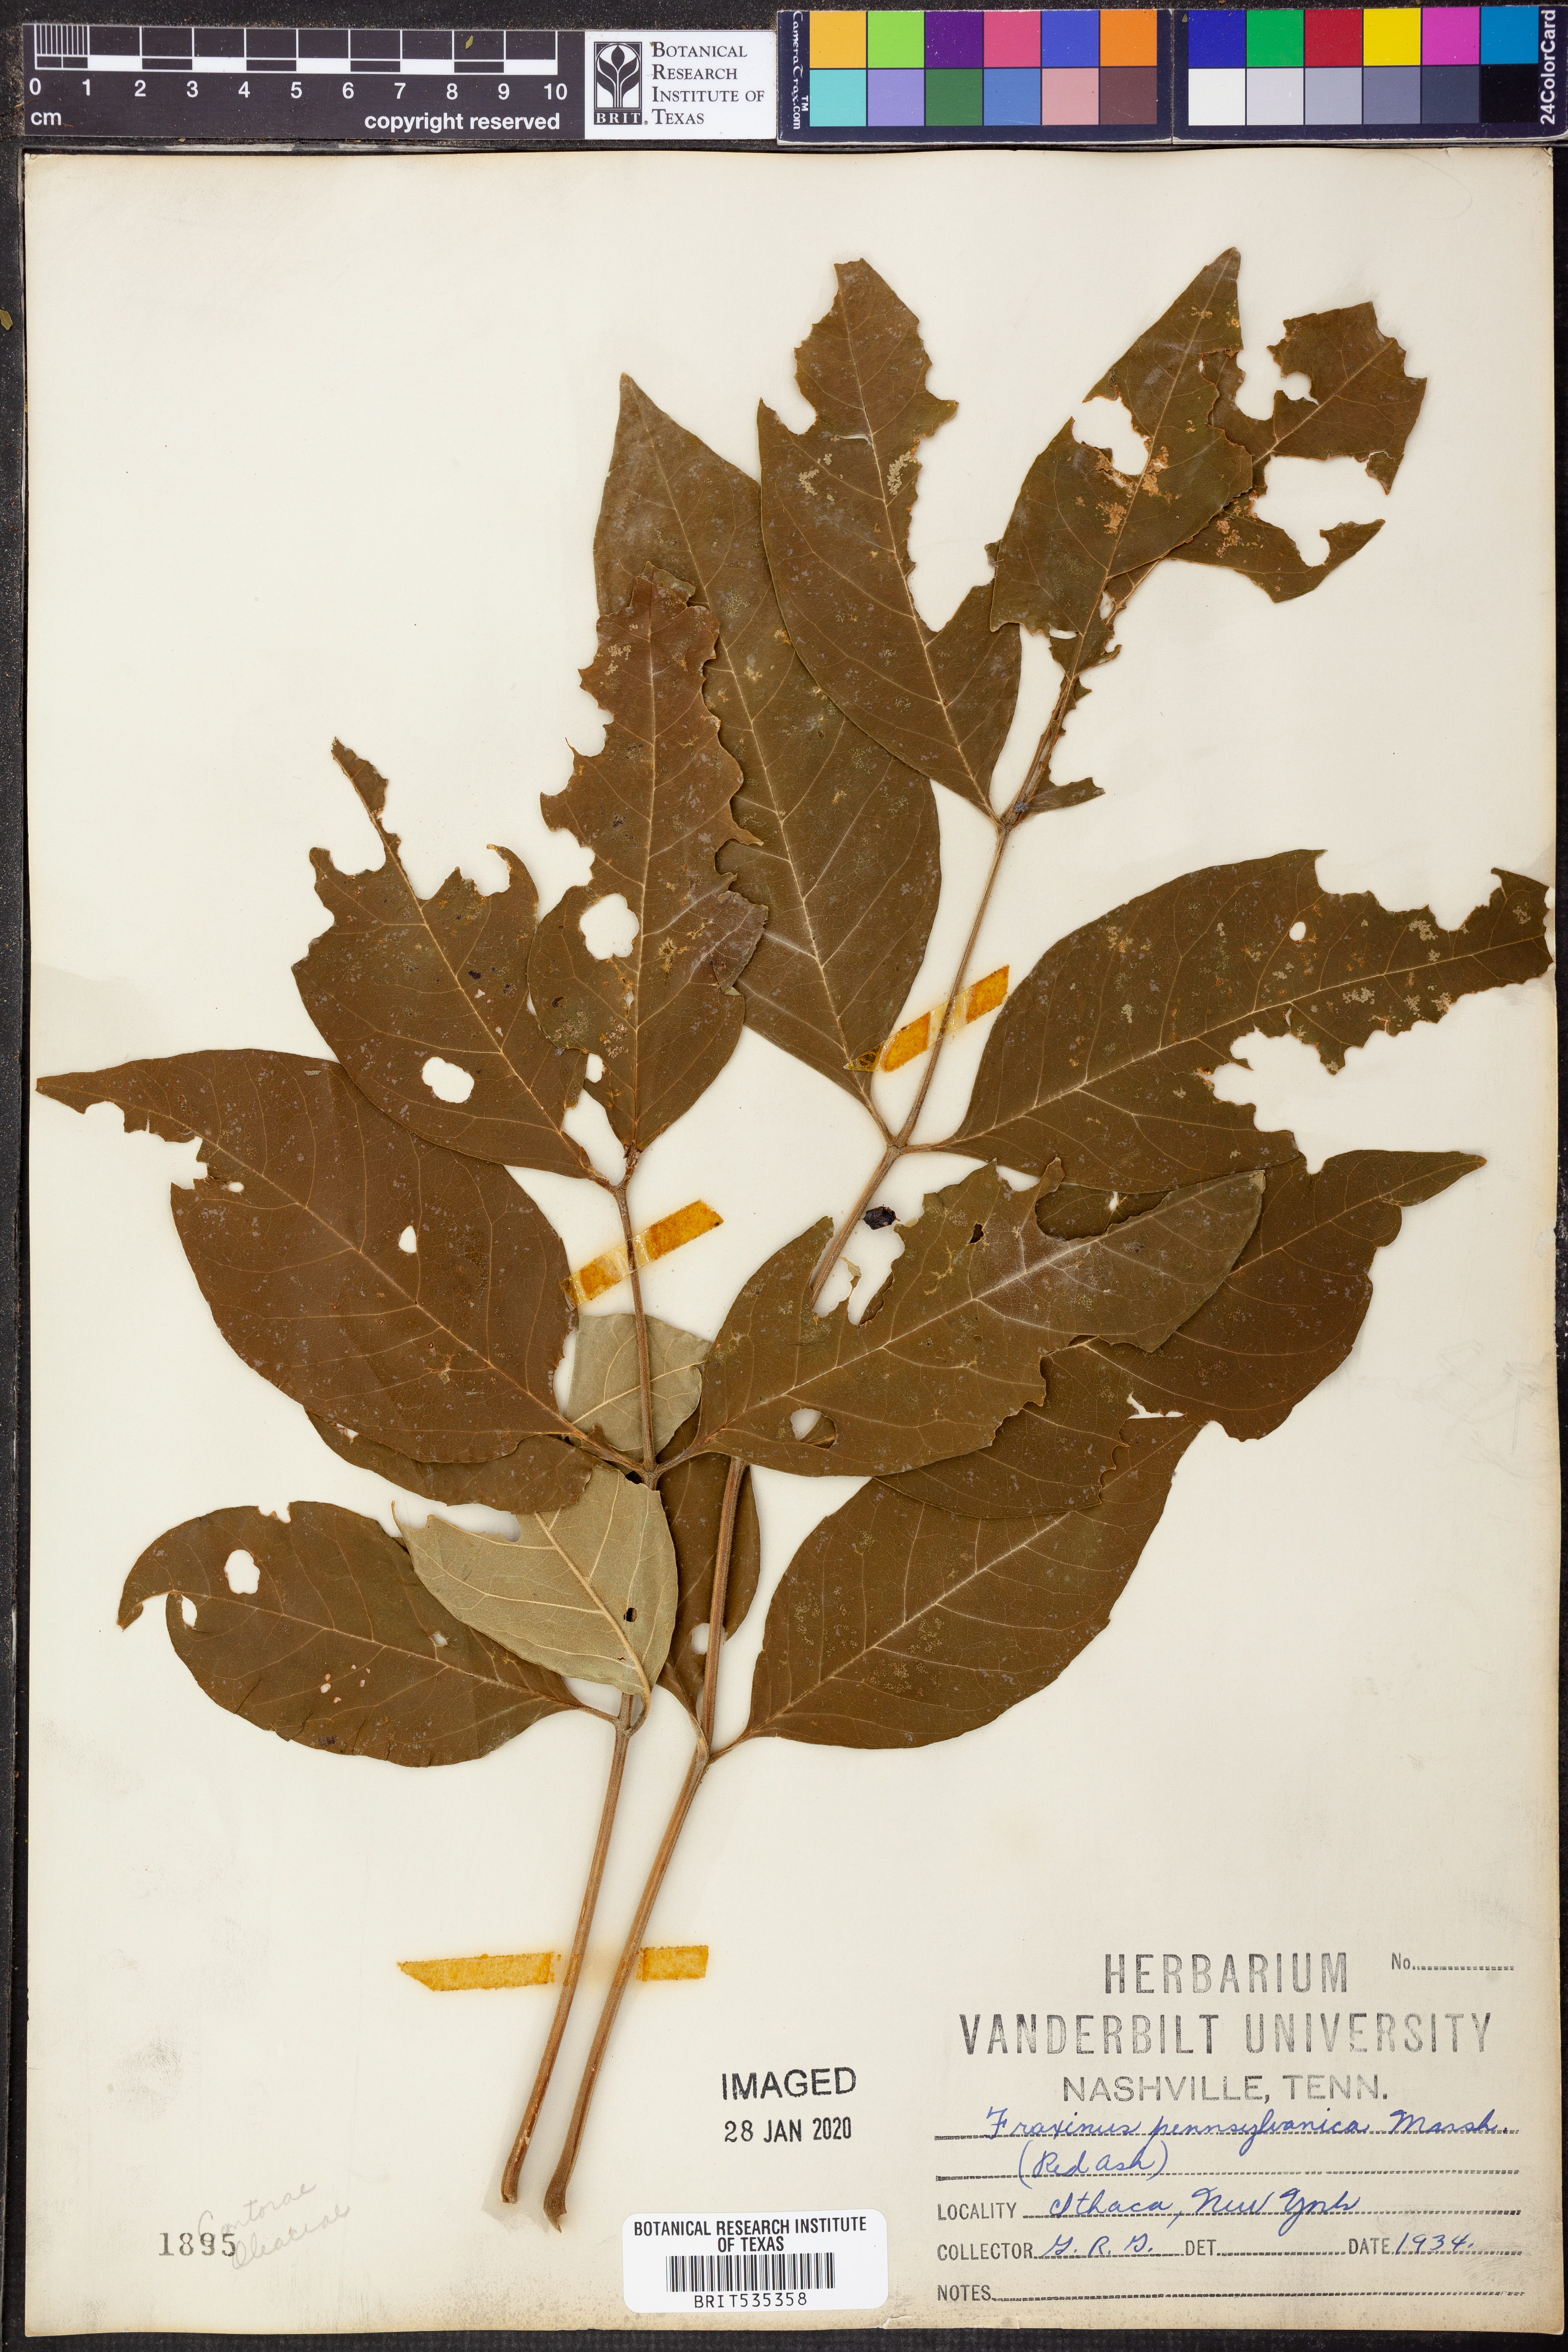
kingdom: Plantae
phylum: Tracheophyta
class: Magnoliopsida
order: Lamiales
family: Oleaceae
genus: Fraxinus
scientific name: Fraxinus pennsylvanica
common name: Green ash
